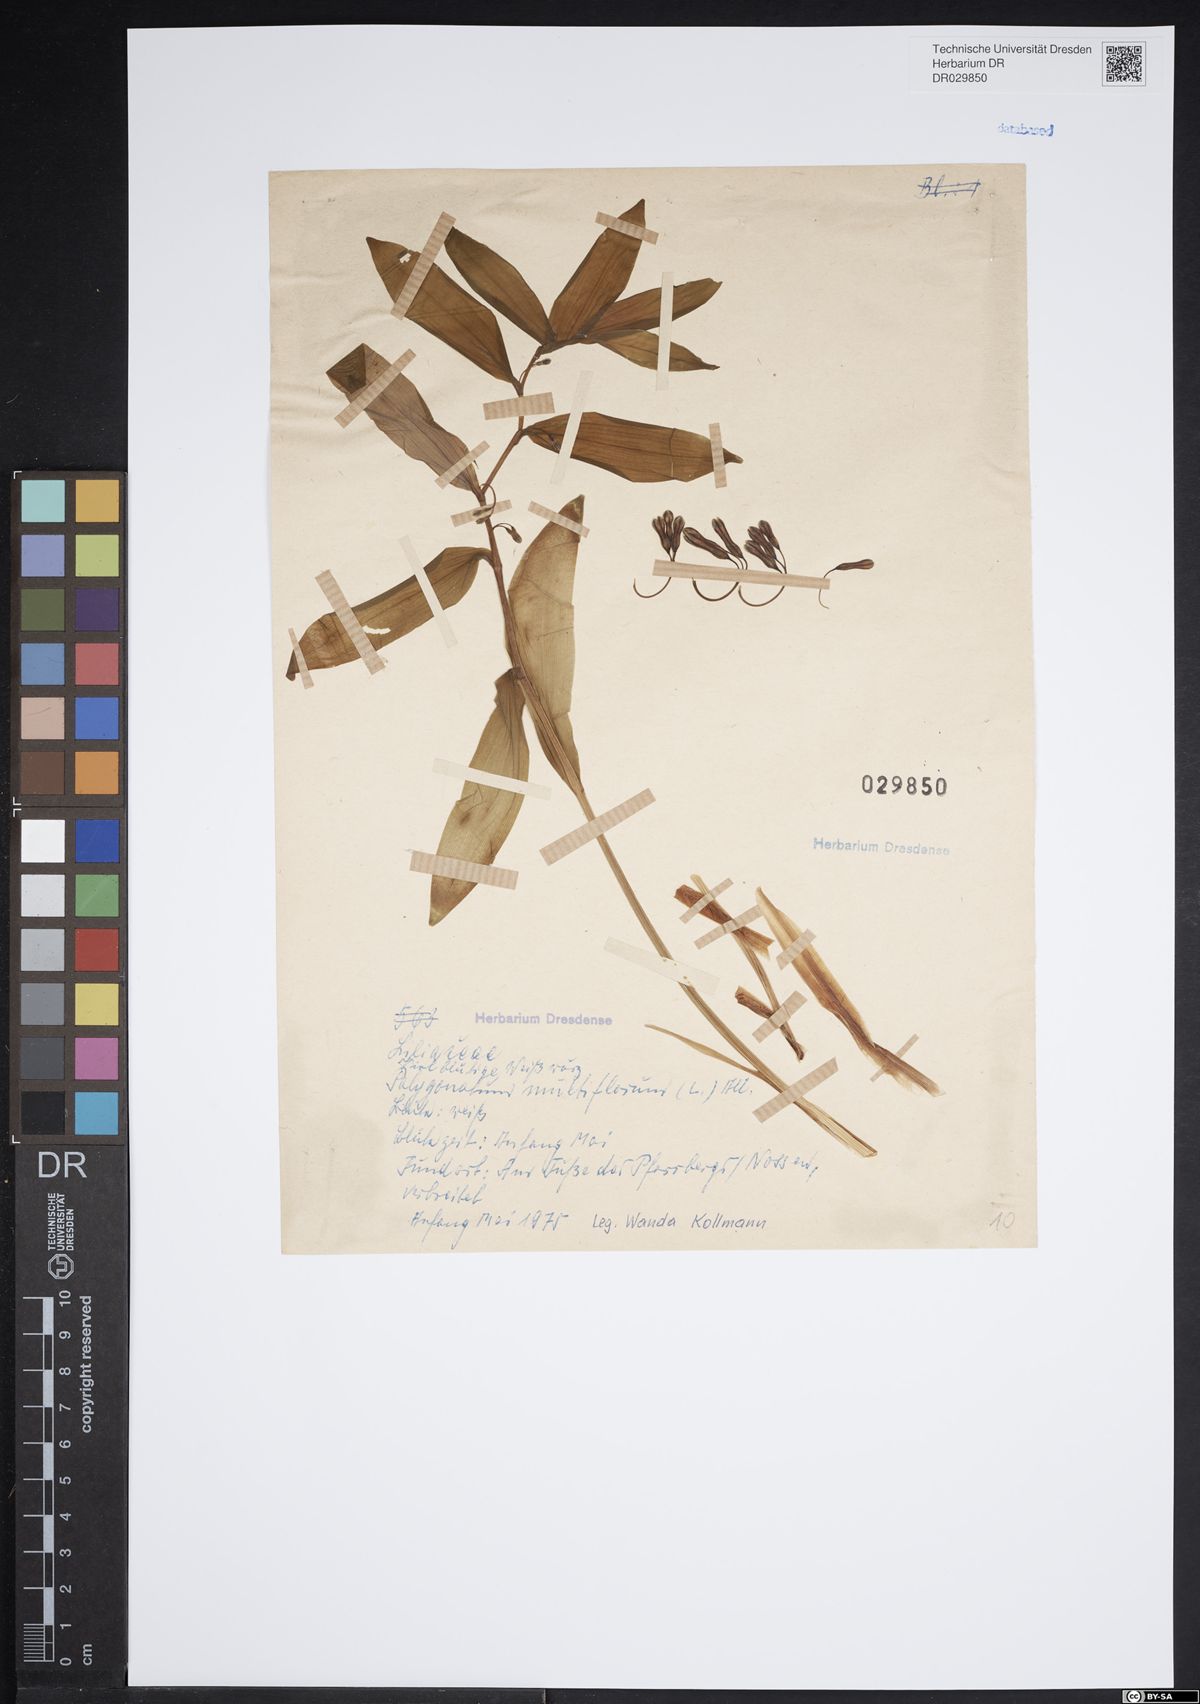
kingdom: Plantae
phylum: Tracheophyta
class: Liliopsida
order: Asparagales
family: Asparagaceae
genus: Polygonatum
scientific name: Polygonatum odoratum
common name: Angular solomon's-seal
